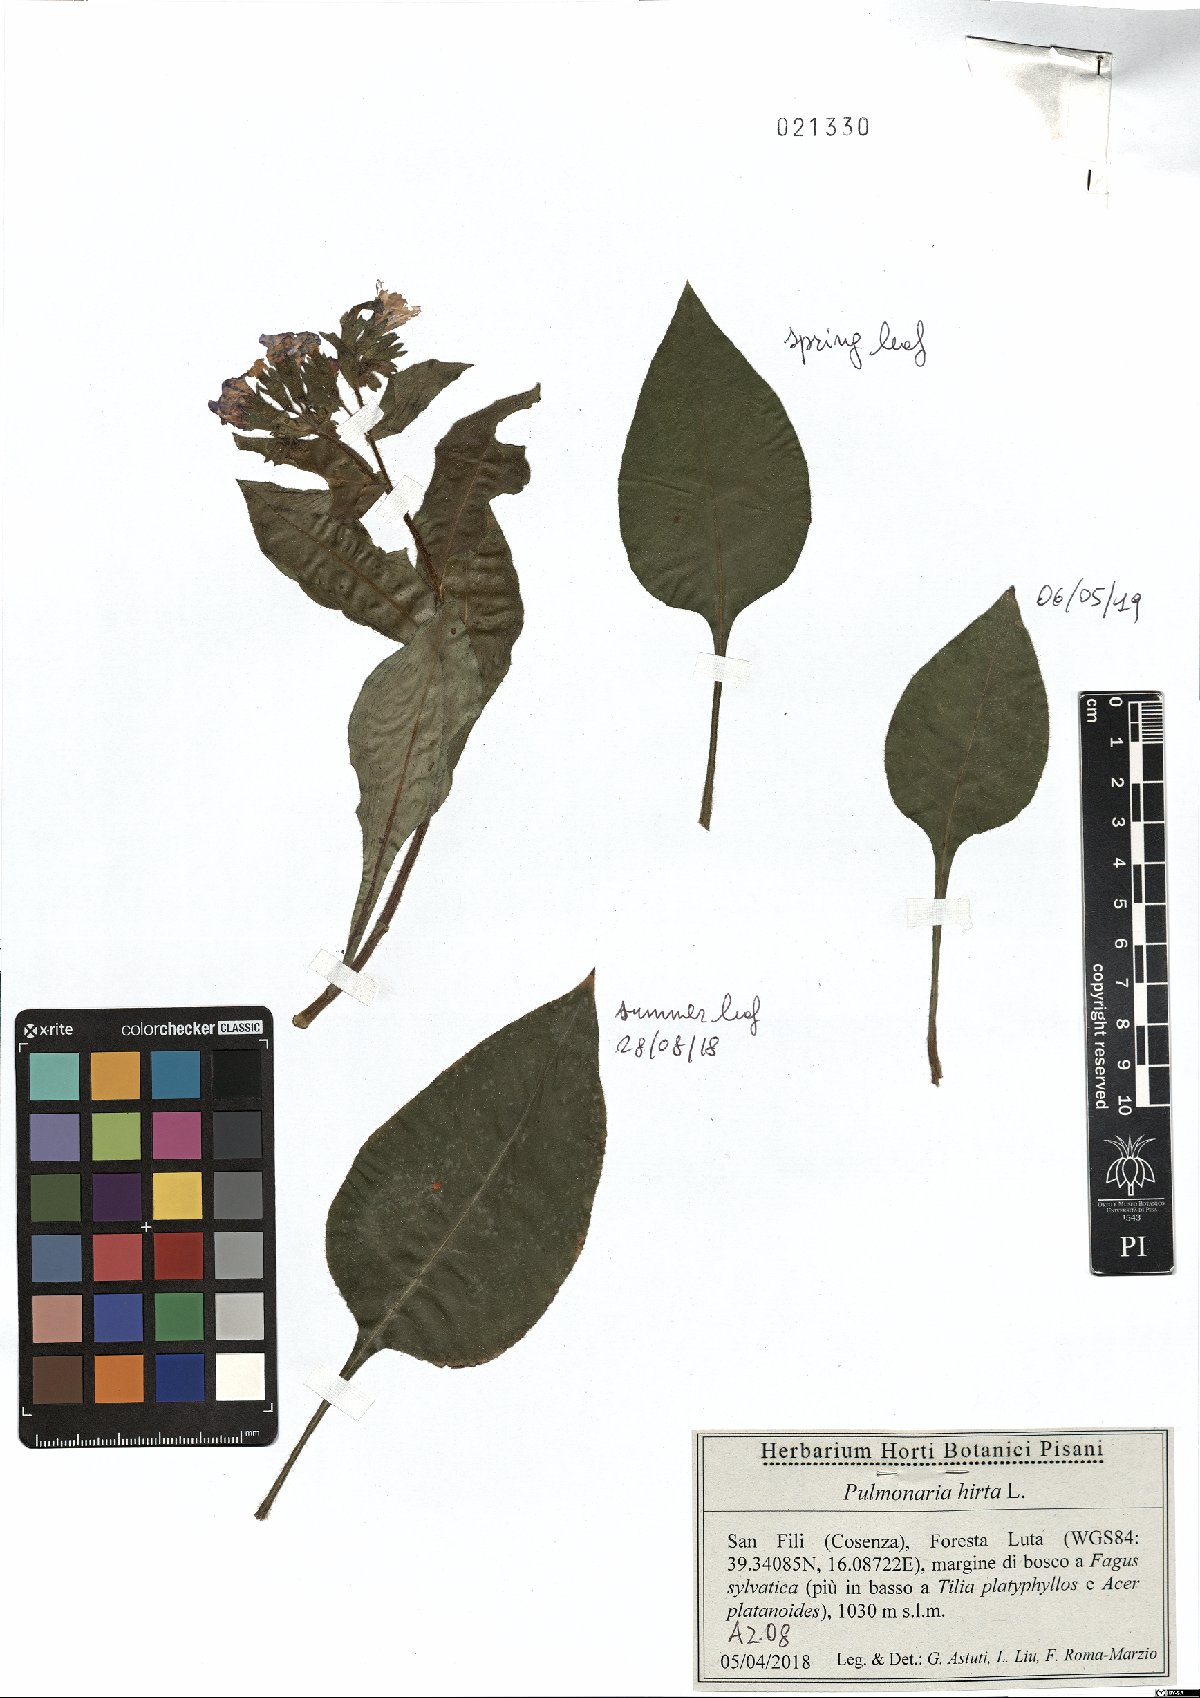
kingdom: Plantae
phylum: Tracheophyta
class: Magnoliopsida
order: Boraginales
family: Boraginaceae
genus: Pulmonaria
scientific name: Pulmonaria hirta
